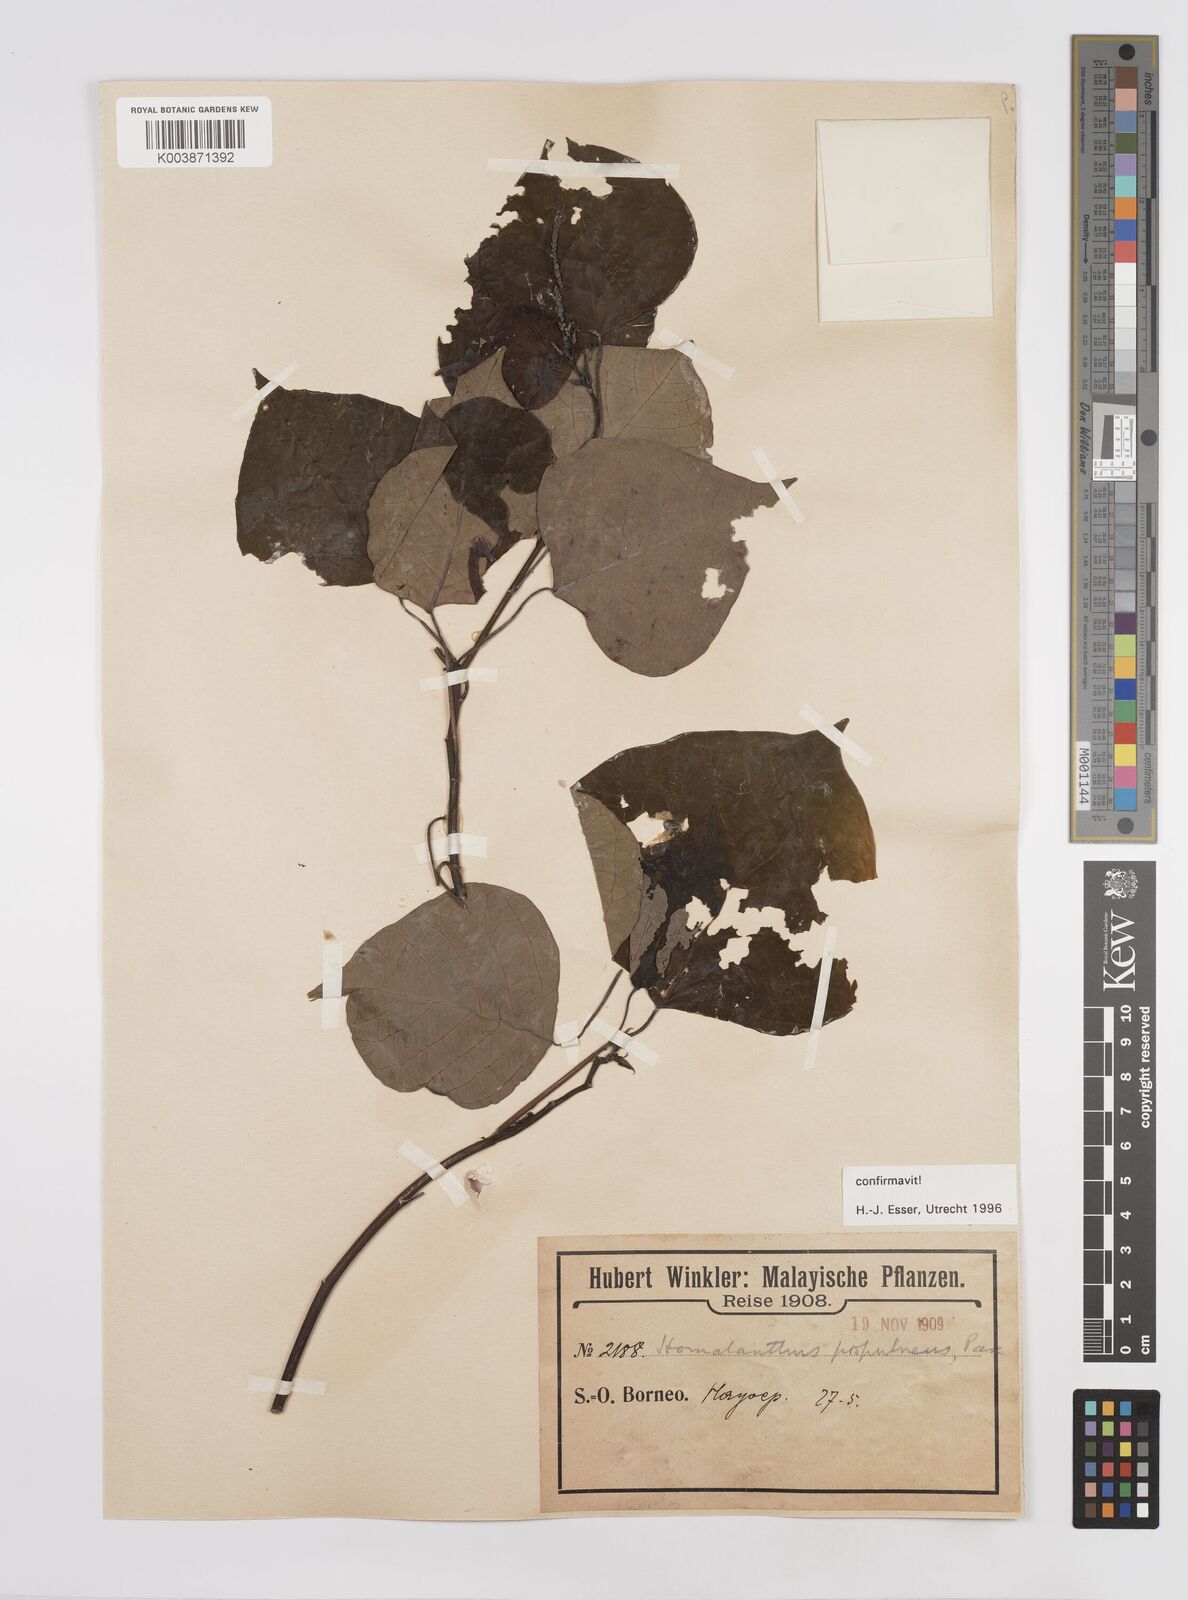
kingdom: Plantae
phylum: Tracheophyta
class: Magnoliopsida
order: Malpighiales
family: Euphorbiaceae
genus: Homalanthus
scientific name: Homalanthus populneus
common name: Spurge
